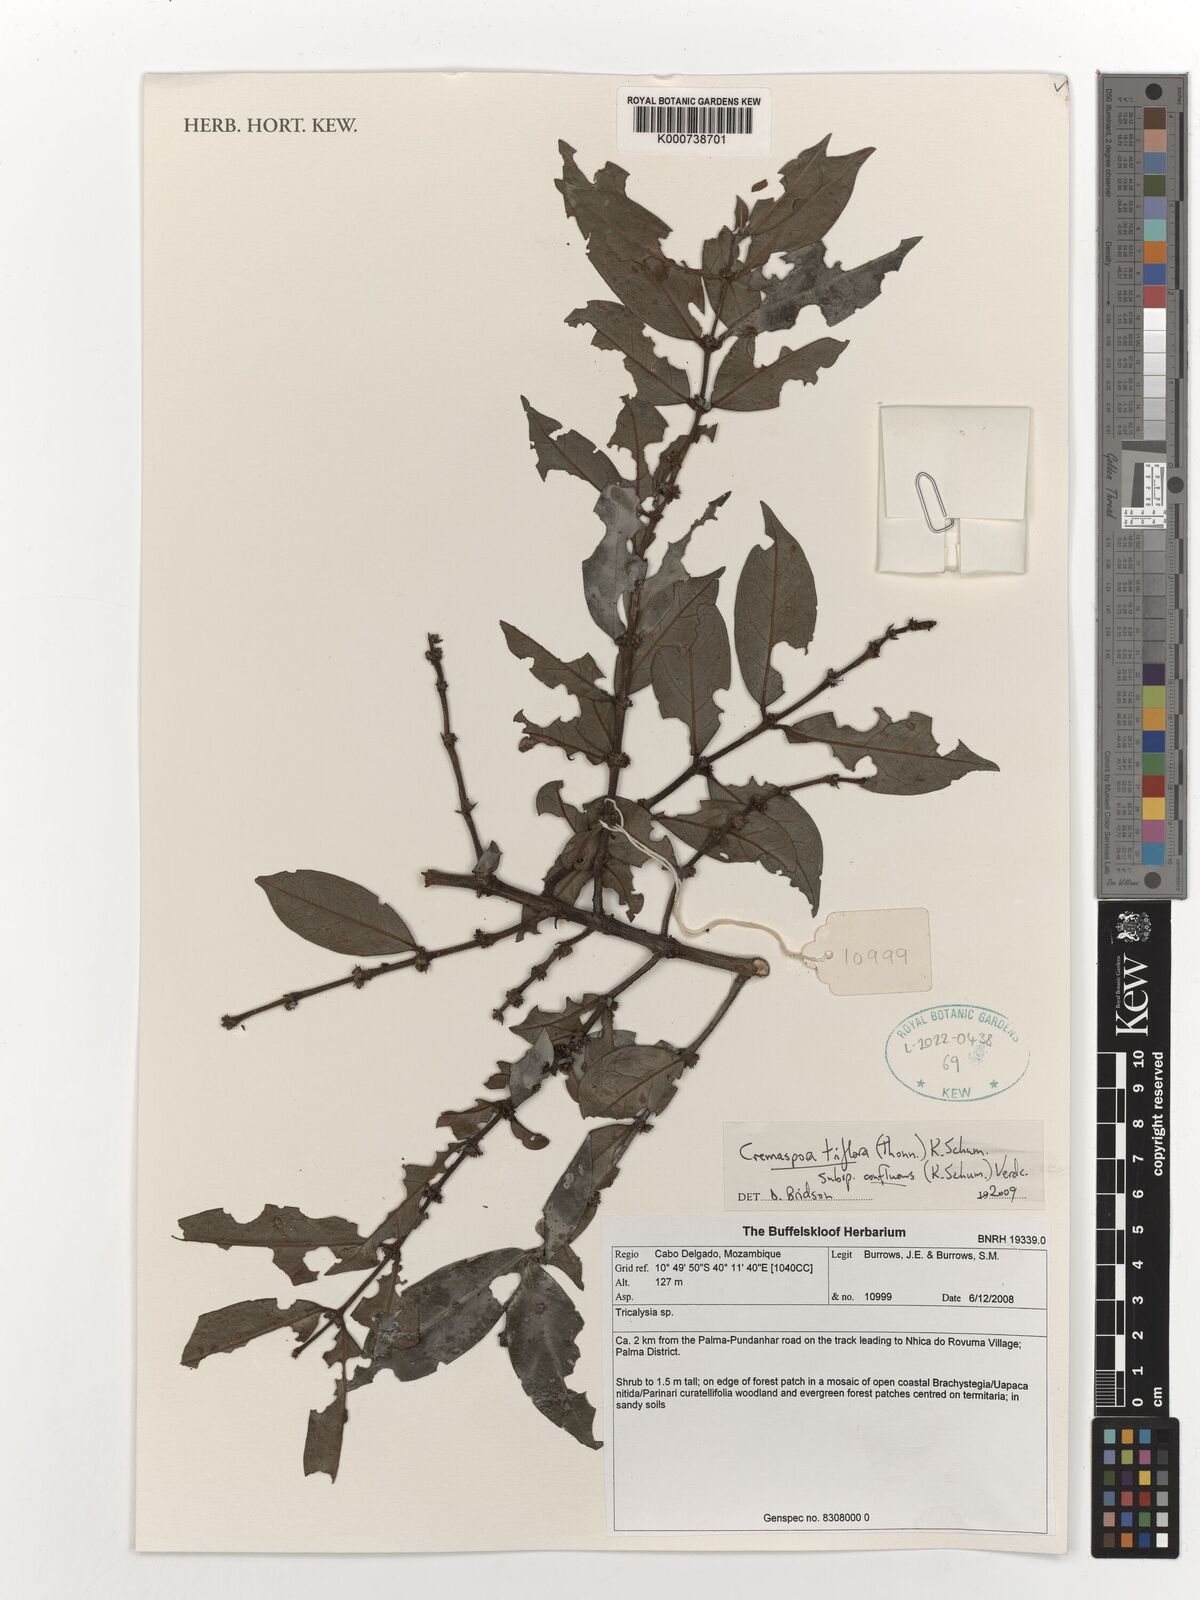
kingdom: Plantae
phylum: Tracheophyta
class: Magnoliopsida
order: Gentianales
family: Rubiaceae
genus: Cremaspora
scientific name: Cremaspora triflora
